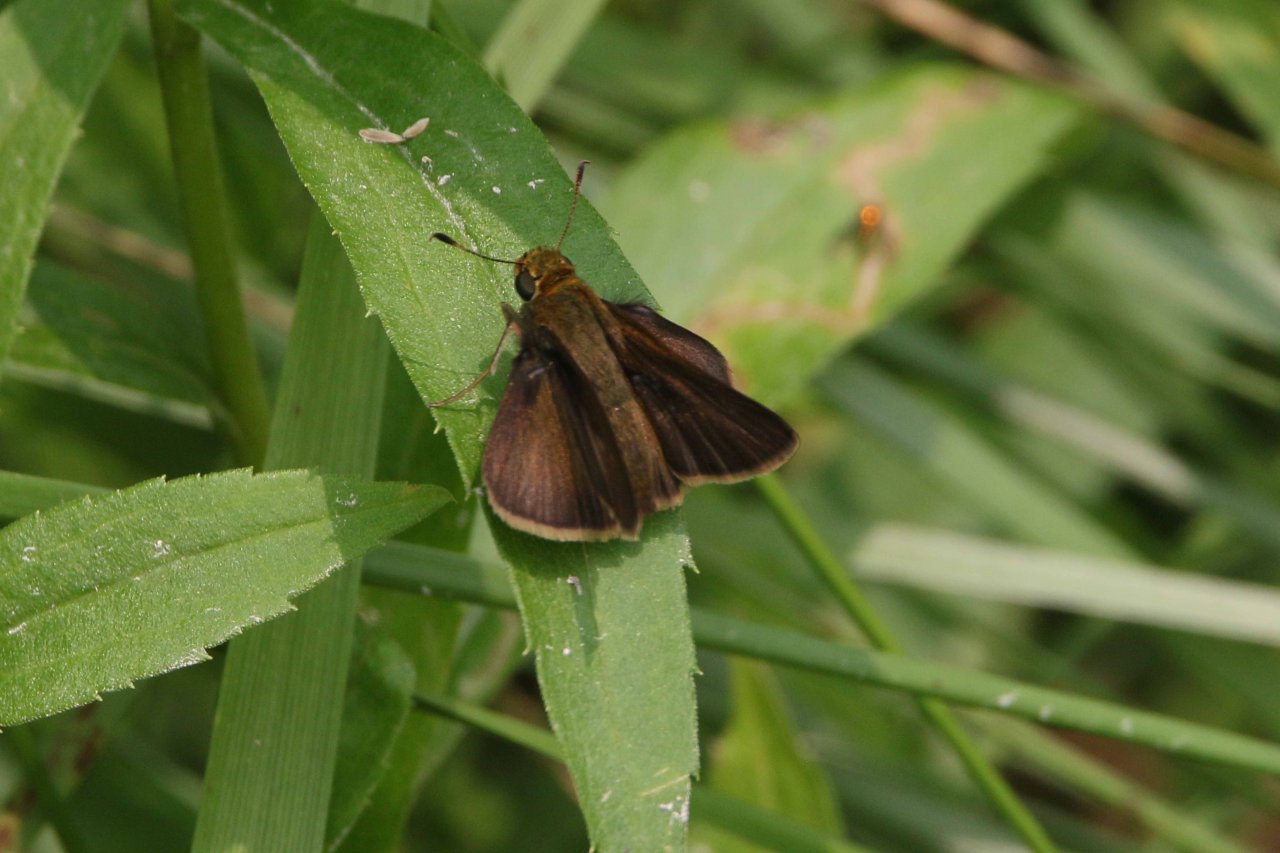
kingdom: Animalia
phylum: Arthropoda
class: Insecta
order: Lepidoptera
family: Hesperiidae
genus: Euphyes
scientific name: Euphyes vestris
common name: Dun Skipper
